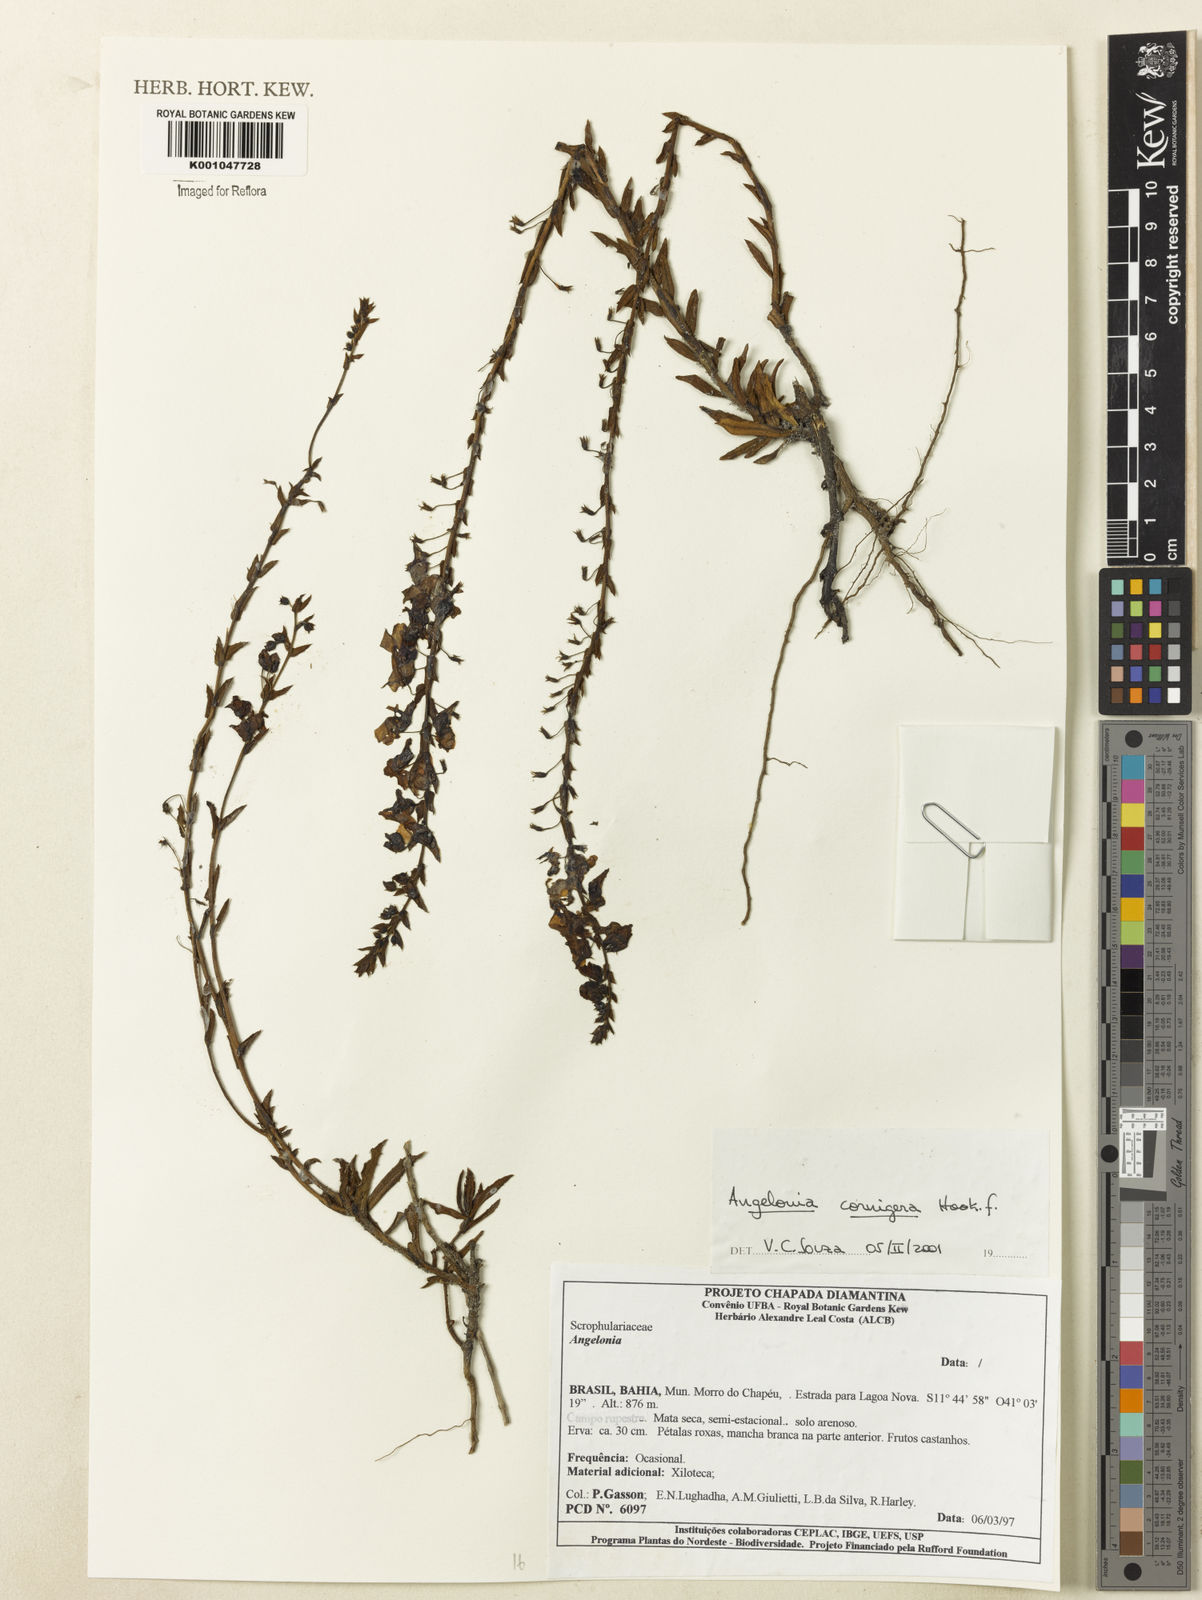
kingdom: Plantae
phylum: Tracheophyta
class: Magnoliopsida
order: Lamiales
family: Plantaginaceae
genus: Angelonia
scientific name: Angelonia cornigera
